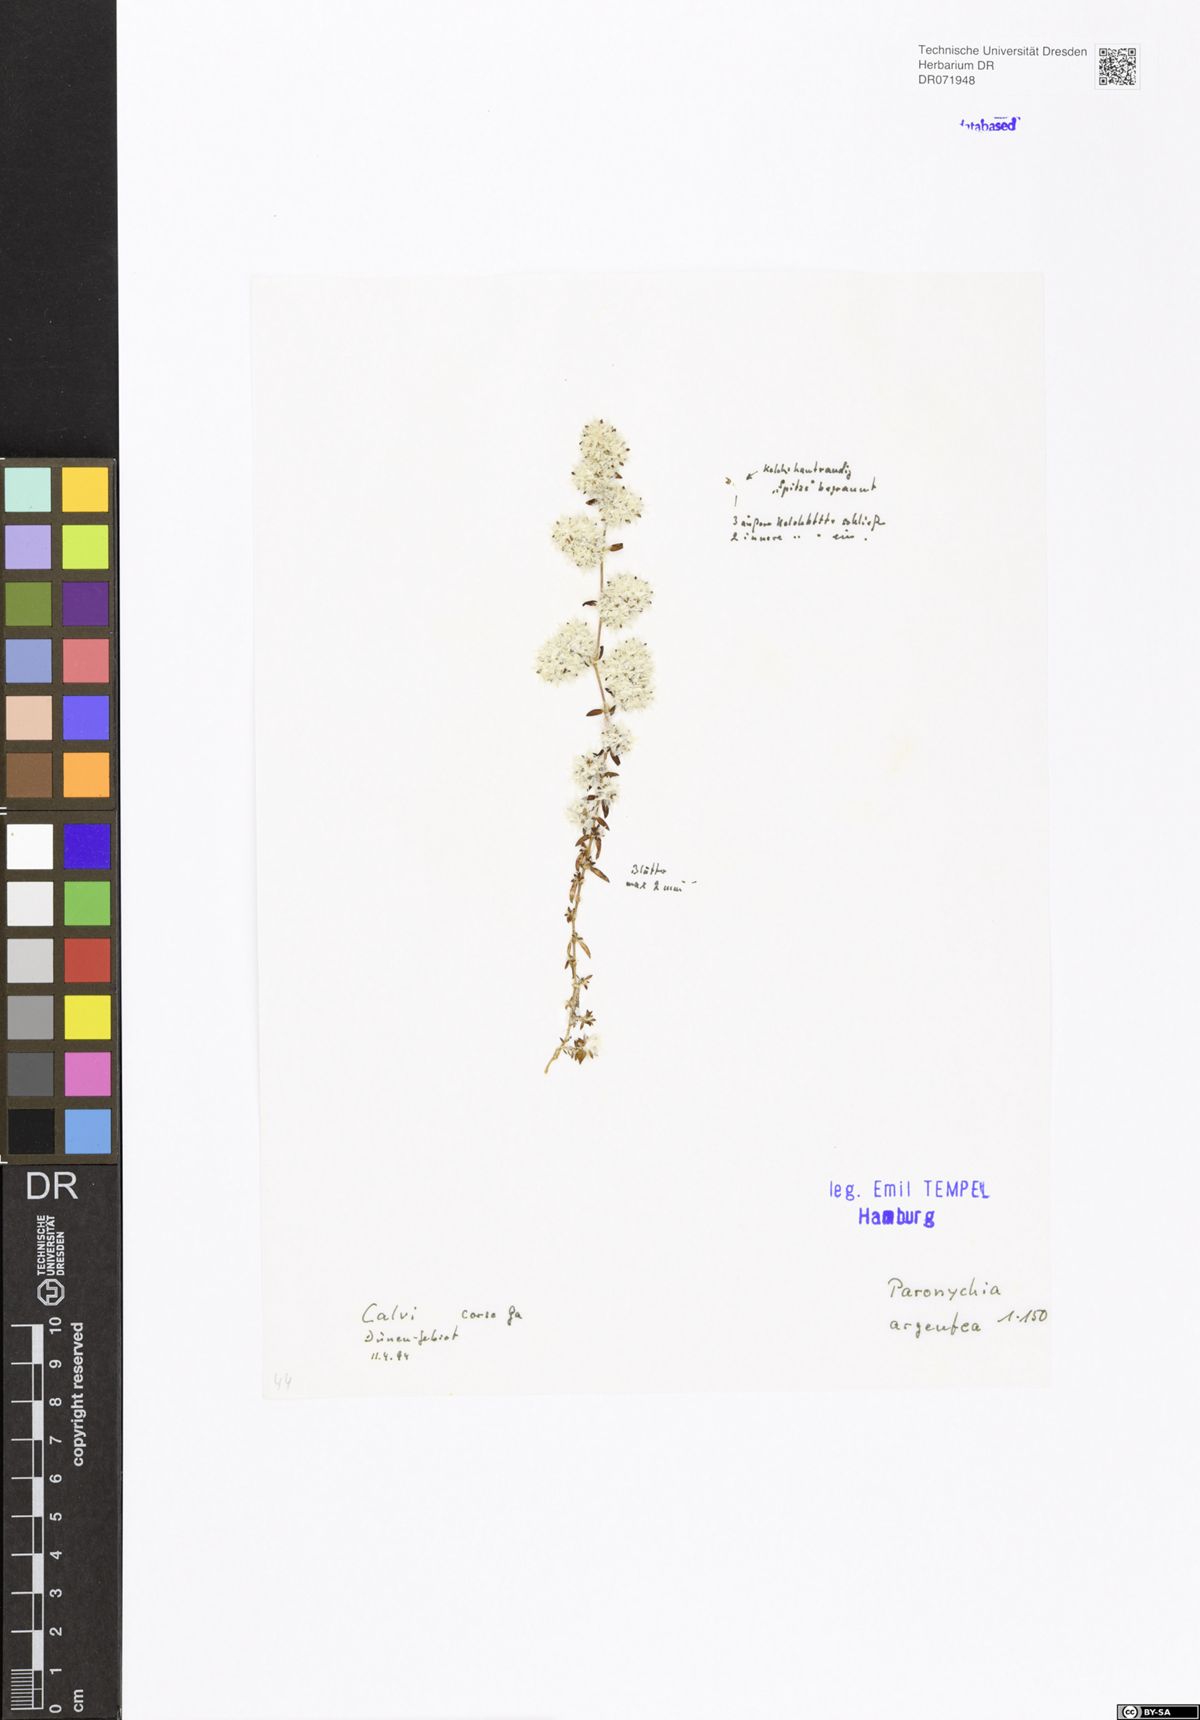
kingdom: Plantae
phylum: Tracheophyta
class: Magnoliopsida
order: Caryophyllales
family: Caryophyllaceae
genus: Paronychia
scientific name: Paronychia argentea
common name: Silver nailroot
